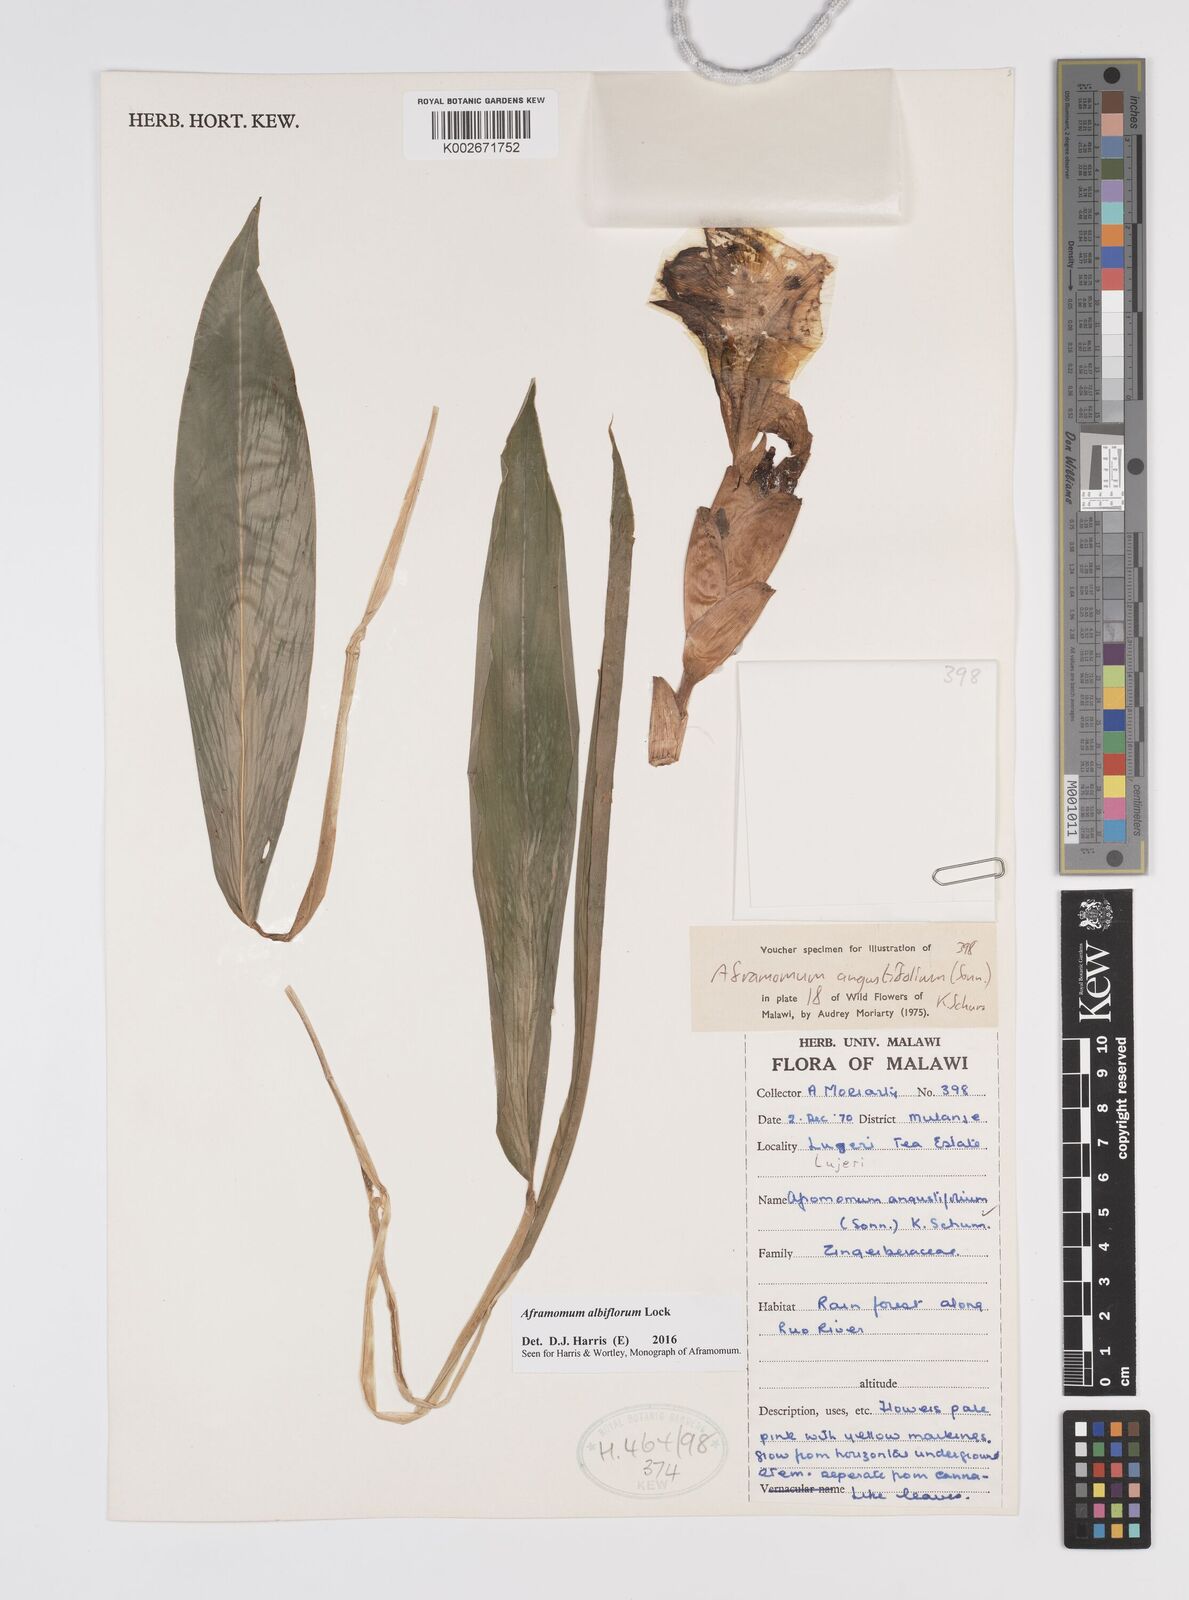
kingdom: Plantae
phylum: Tracheophyta
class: Liliopsida
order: Zingiberales
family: Zingiberaceae
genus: Aframomum
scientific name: Aframomum albiflorum
